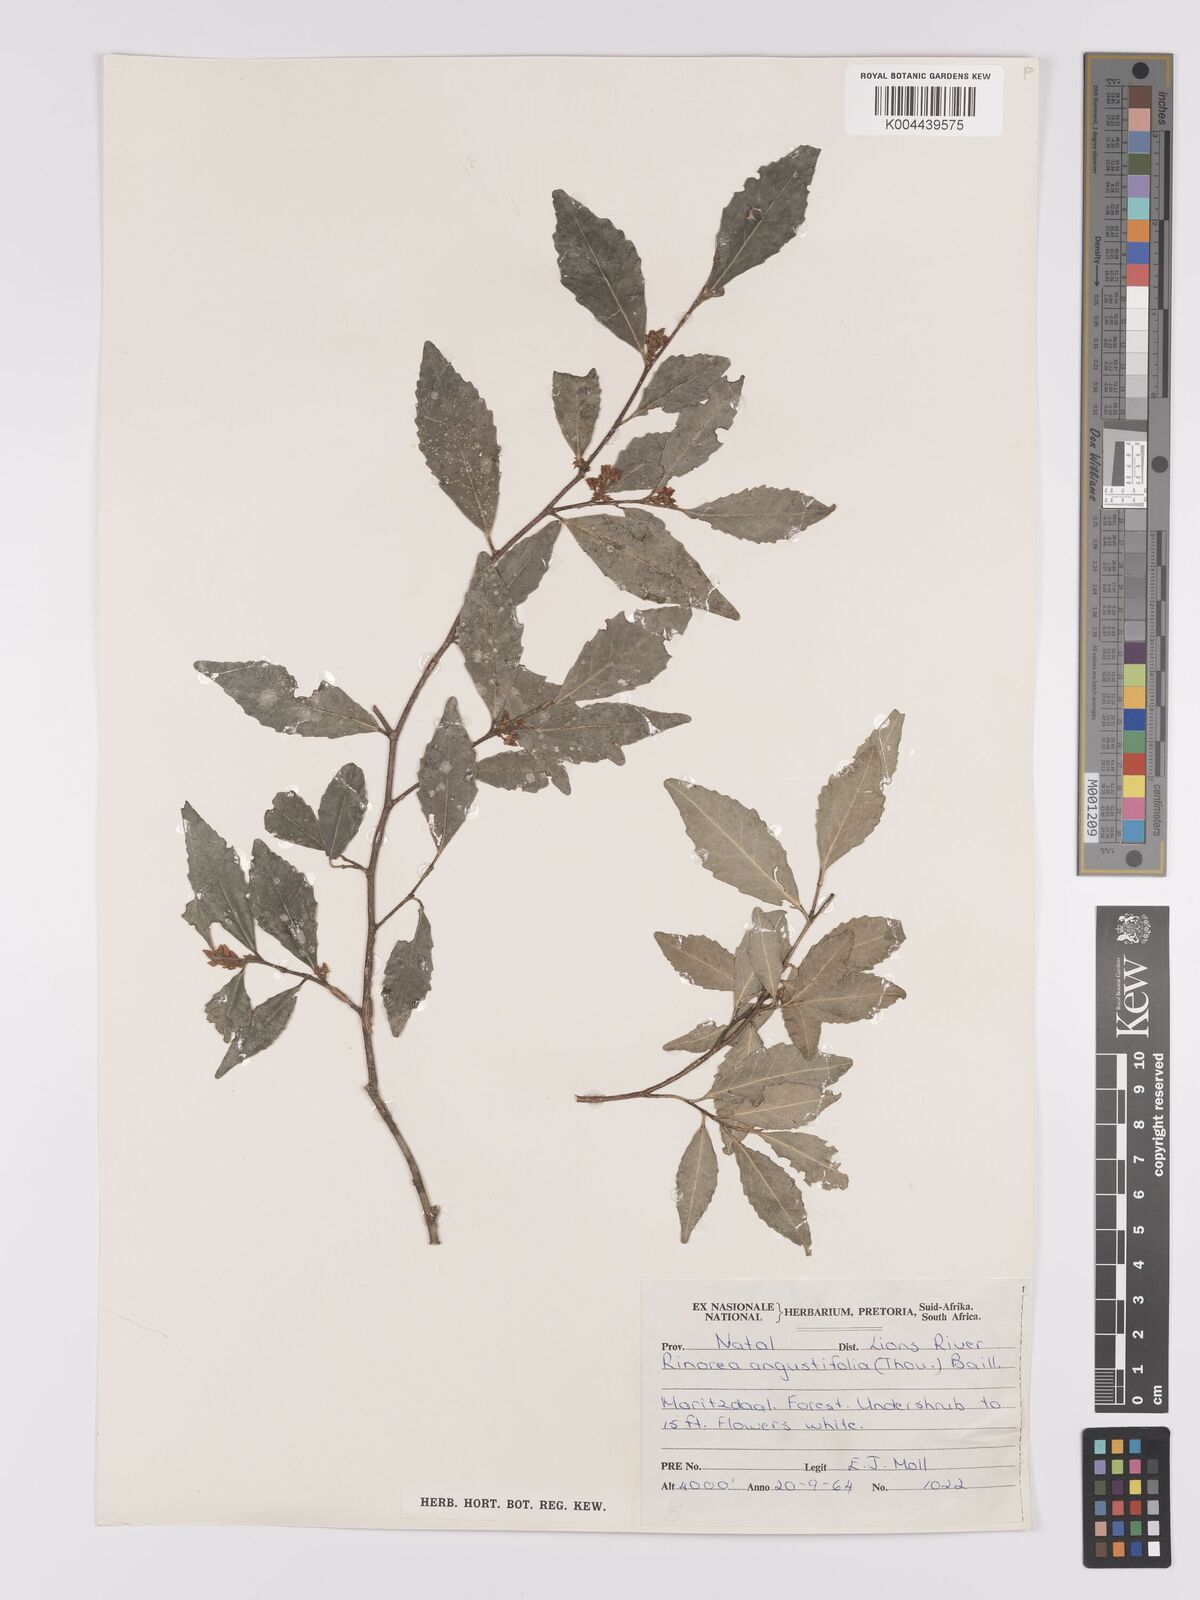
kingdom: Plantae
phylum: Tracheophyta
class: Magnoliopsida
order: Malpighiales
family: Violaceae
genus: Rinorea
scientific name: Rinorea angustifolia
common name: White violet-bush
